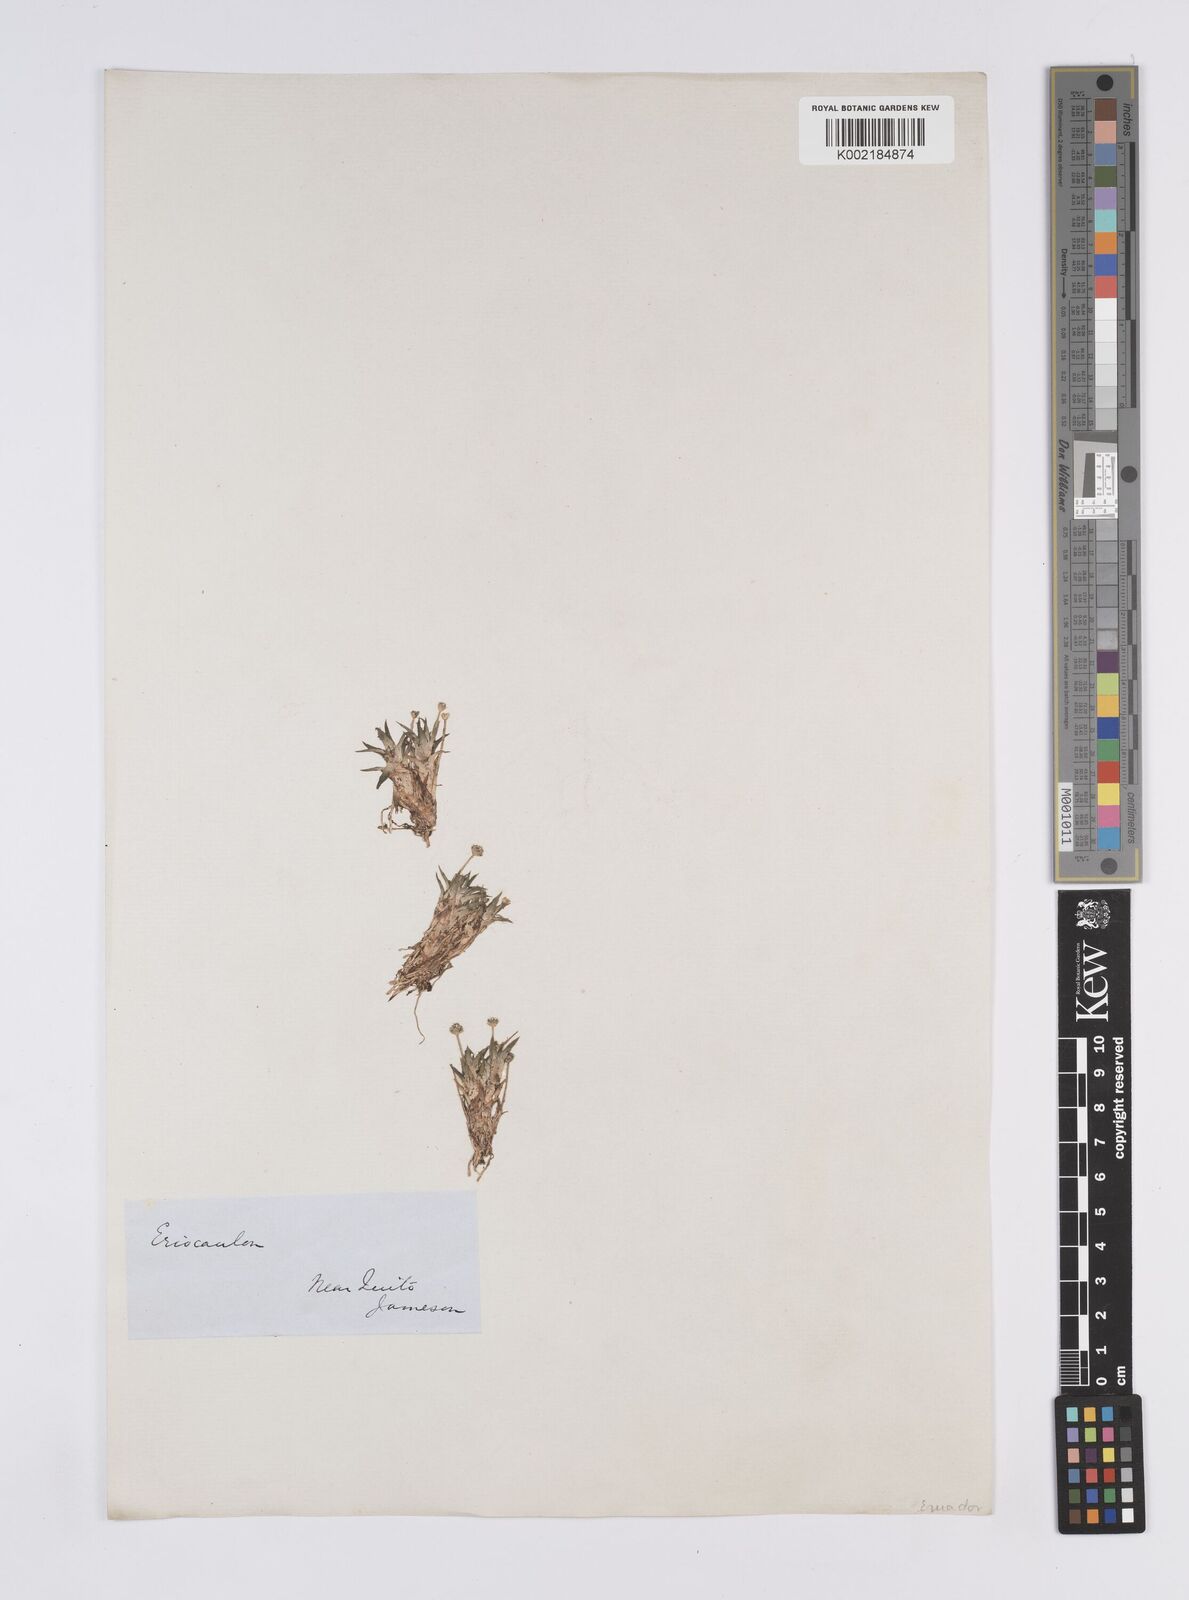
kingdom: Plantae
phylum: Tracheophyta
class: Liliopsida
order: Poales
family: Eriocaulaceae
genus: Eriocaulon
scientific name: Eriocaulon
